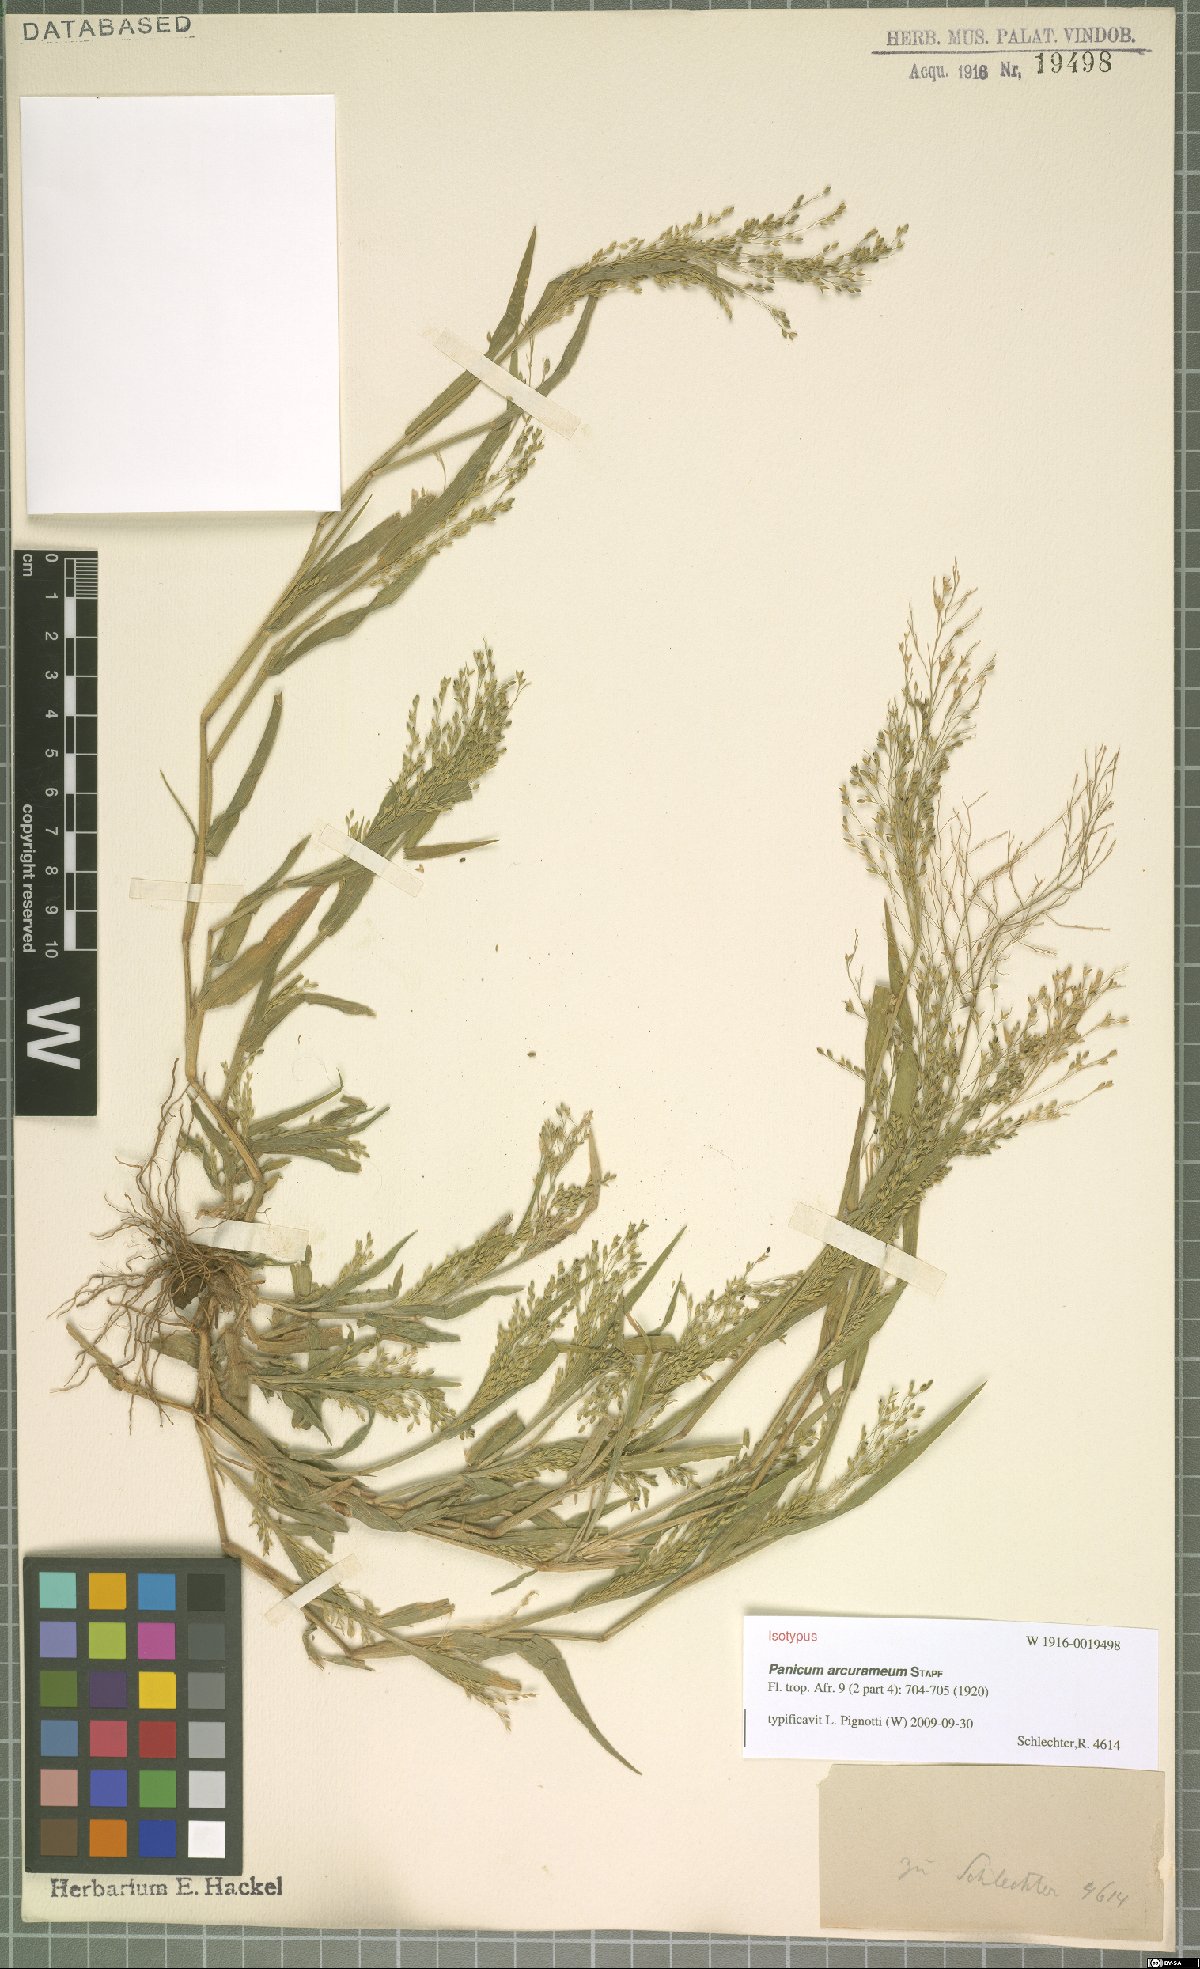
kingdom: Plantae
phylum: Tracheophyta
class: Liliopsida
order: Poales
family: Poaceae
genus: Panicum
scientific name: Panicum arcurameum
